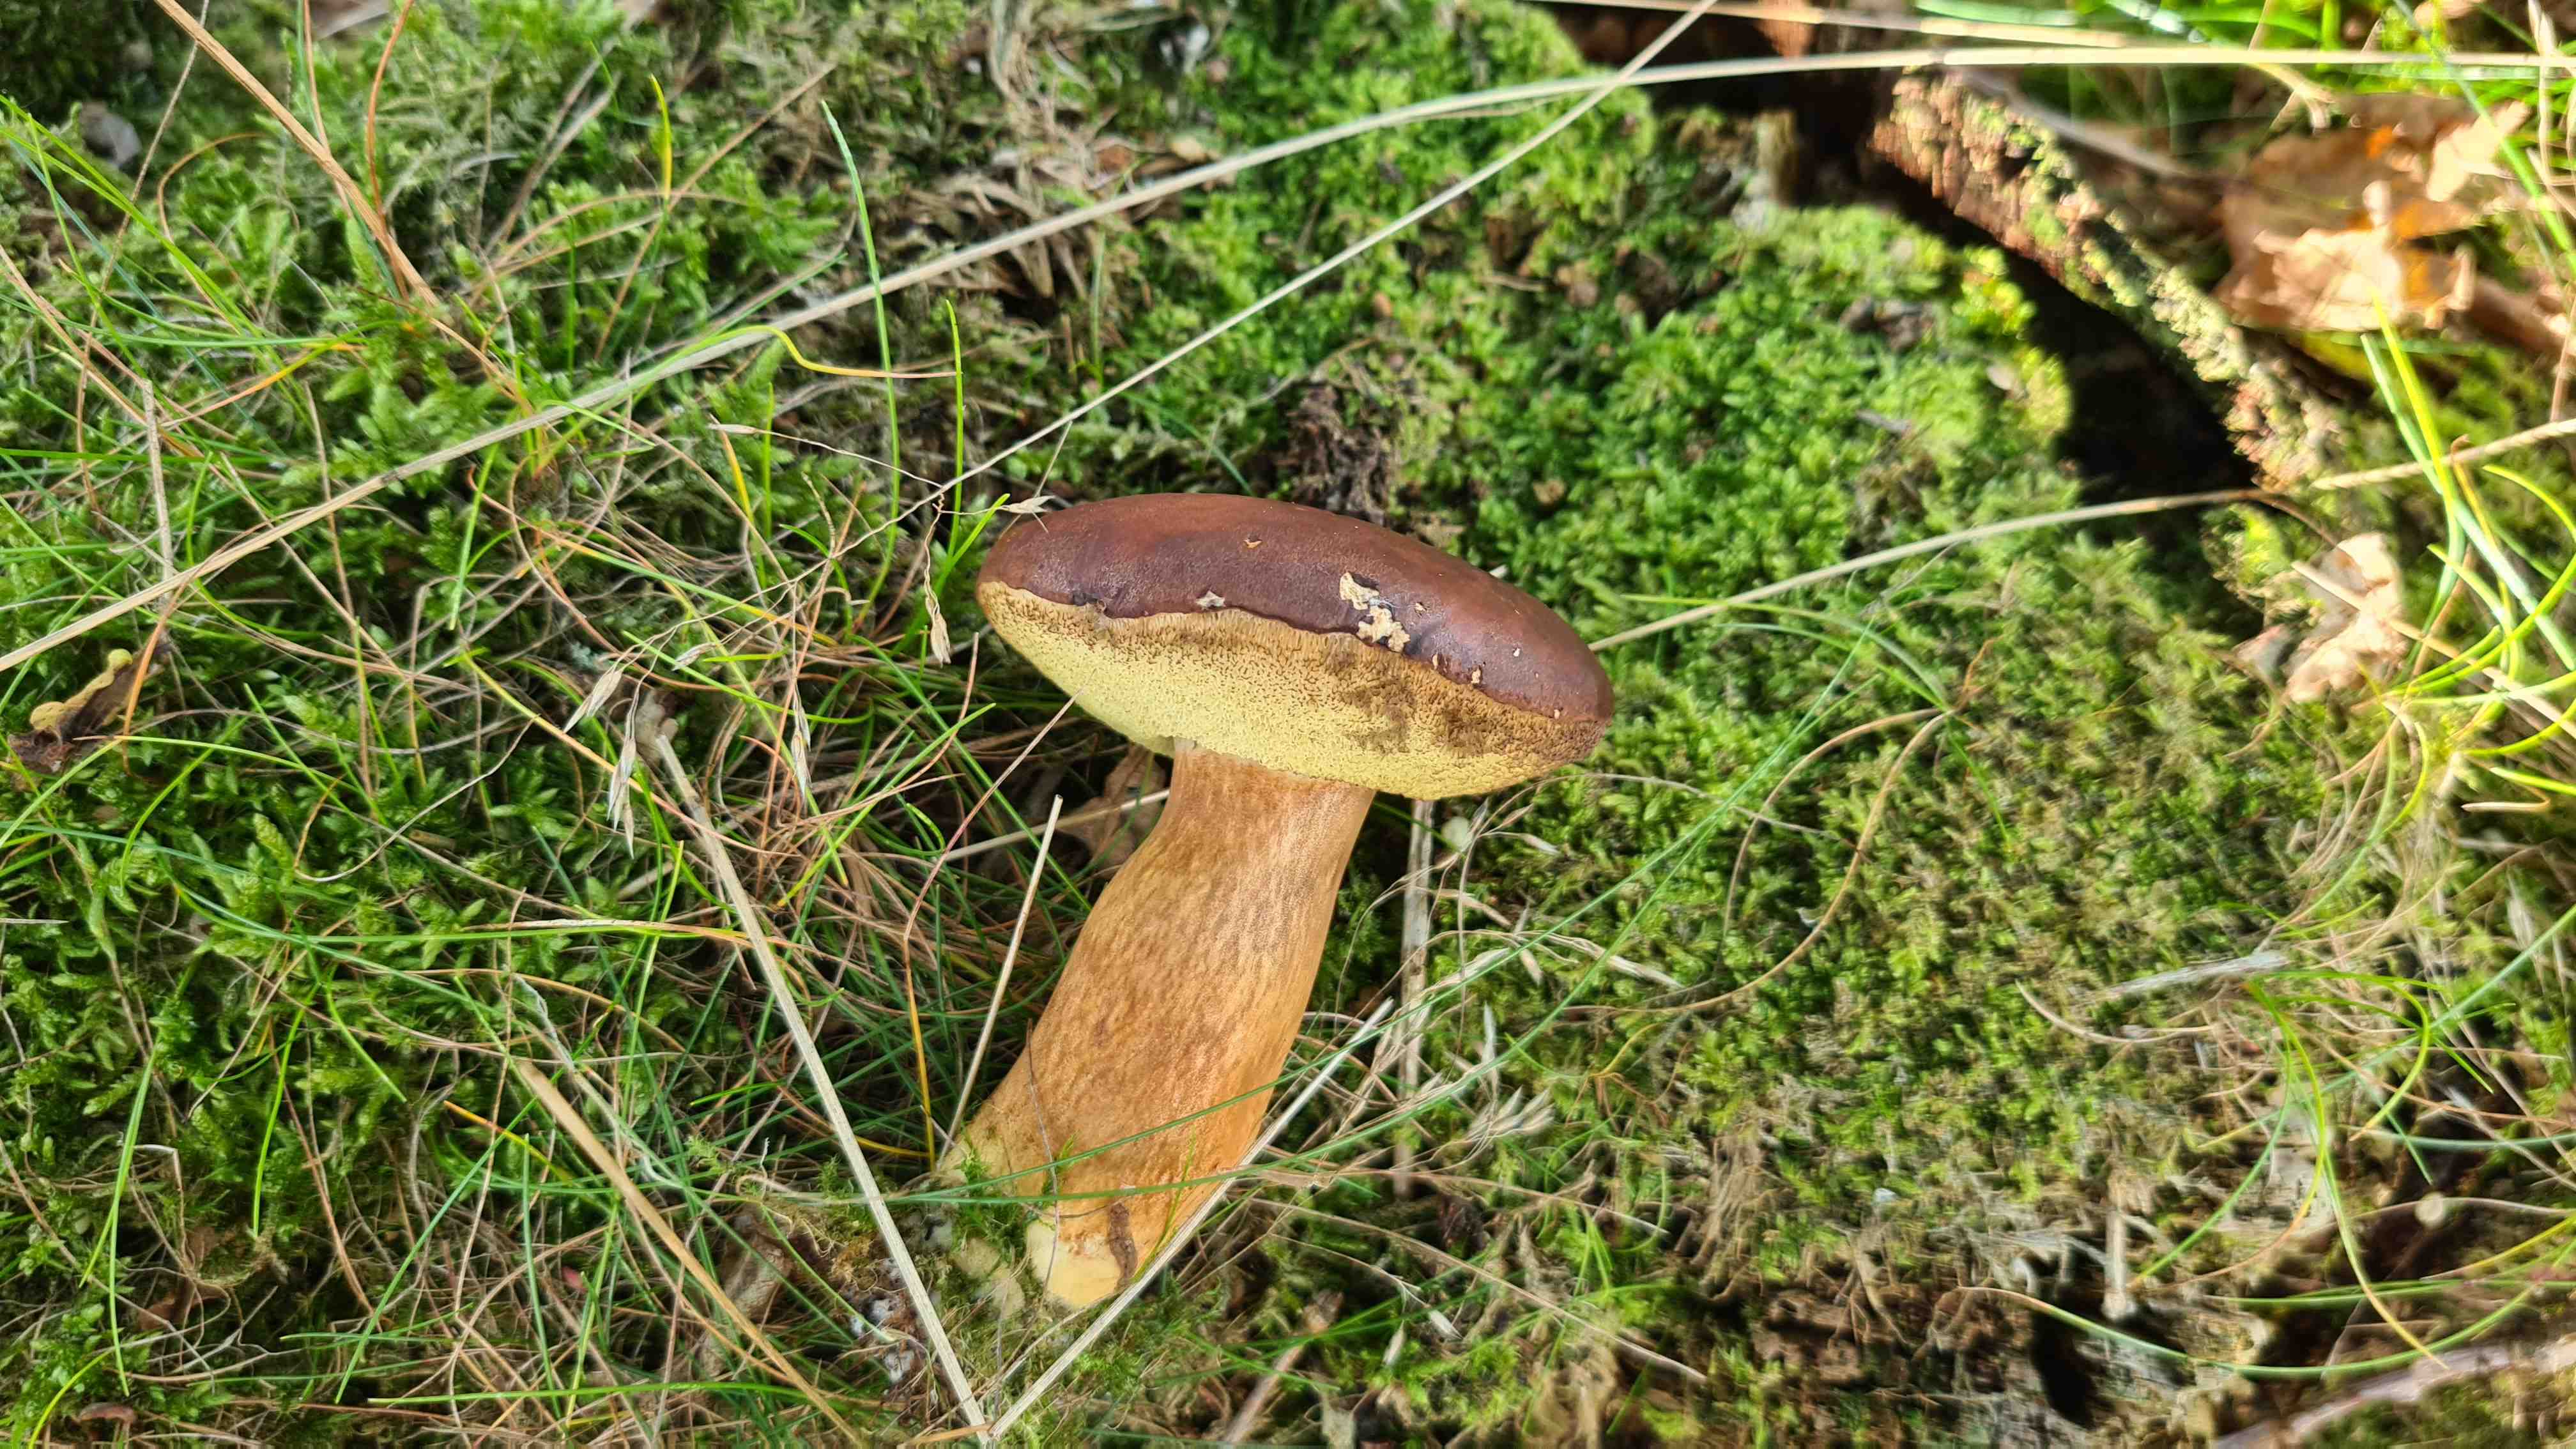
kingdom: Fungi
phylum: Basidiomycota
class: Agaricomycetes
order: Boletales
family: Boletaceae
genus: Imleria
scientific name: Imleria badia
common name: brunstokket rørhat
